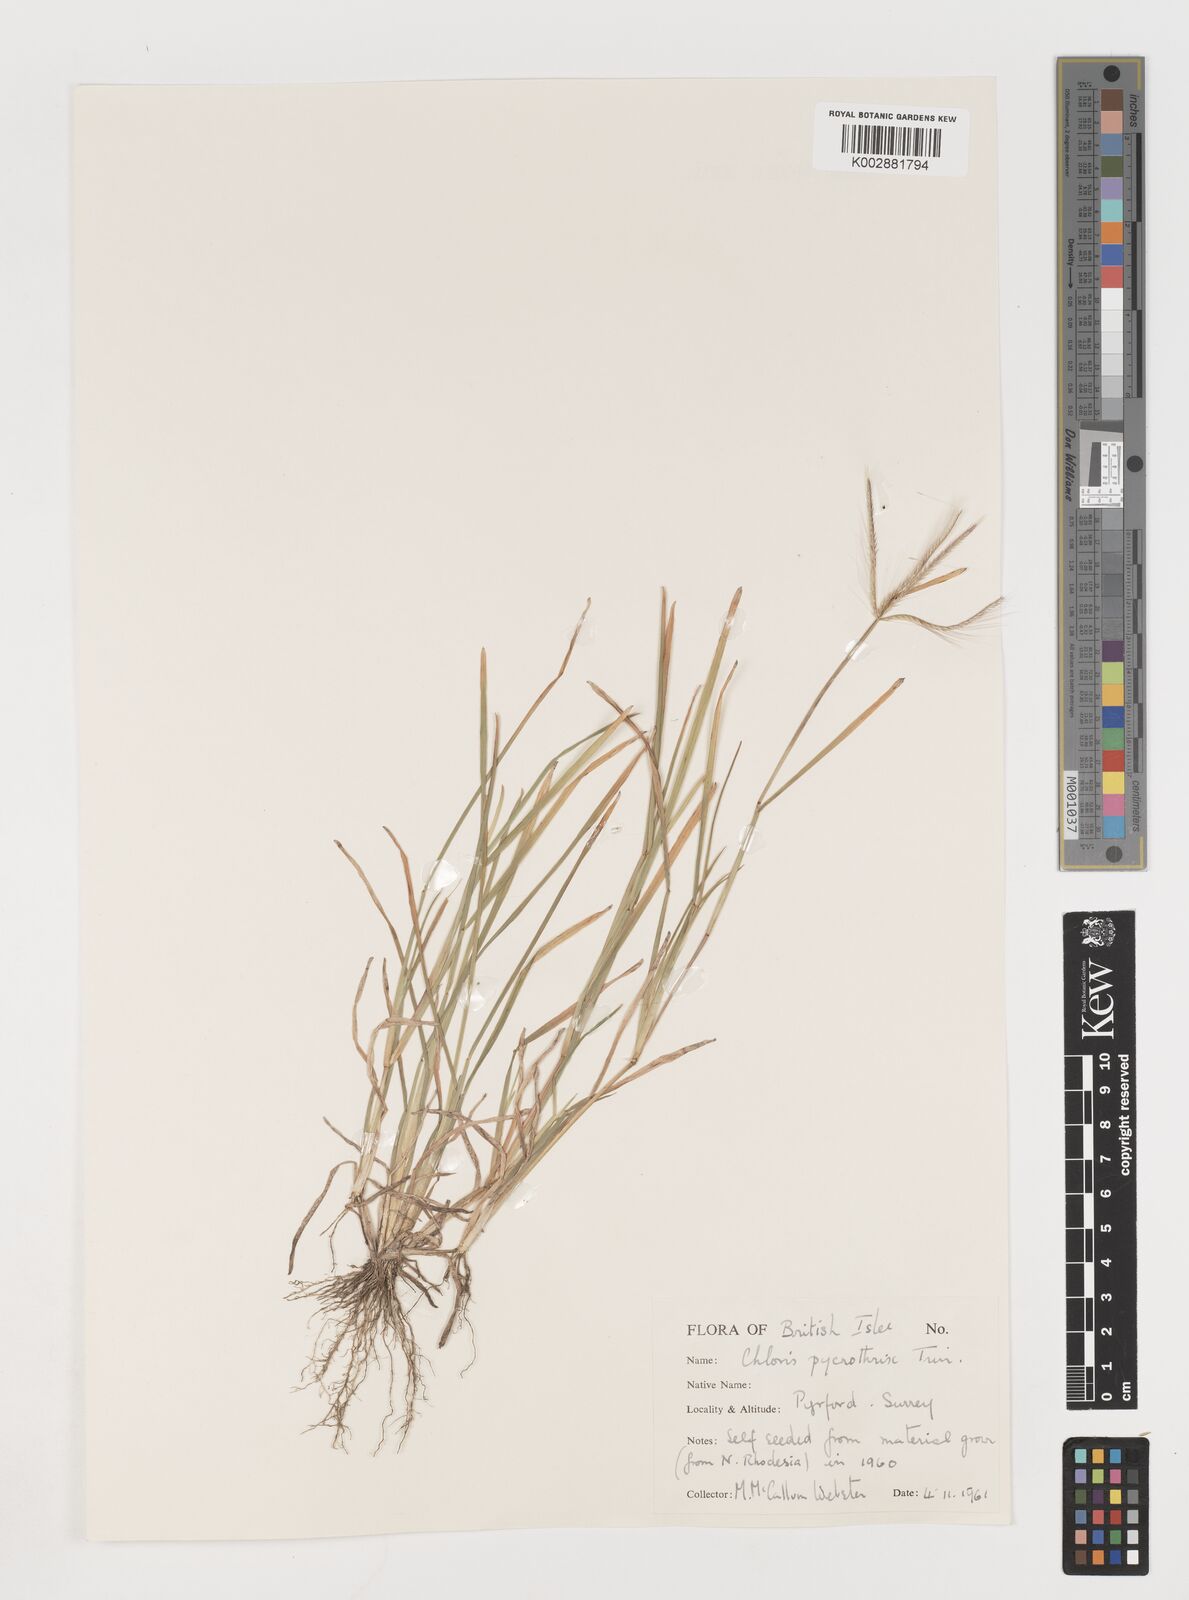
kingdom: Plantae
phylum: Tracheophyta
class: Liliopsida
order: Poales
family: Poaceae
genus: Chloris
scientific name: Chloris pycnothrix
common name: Spiderweb chloris
